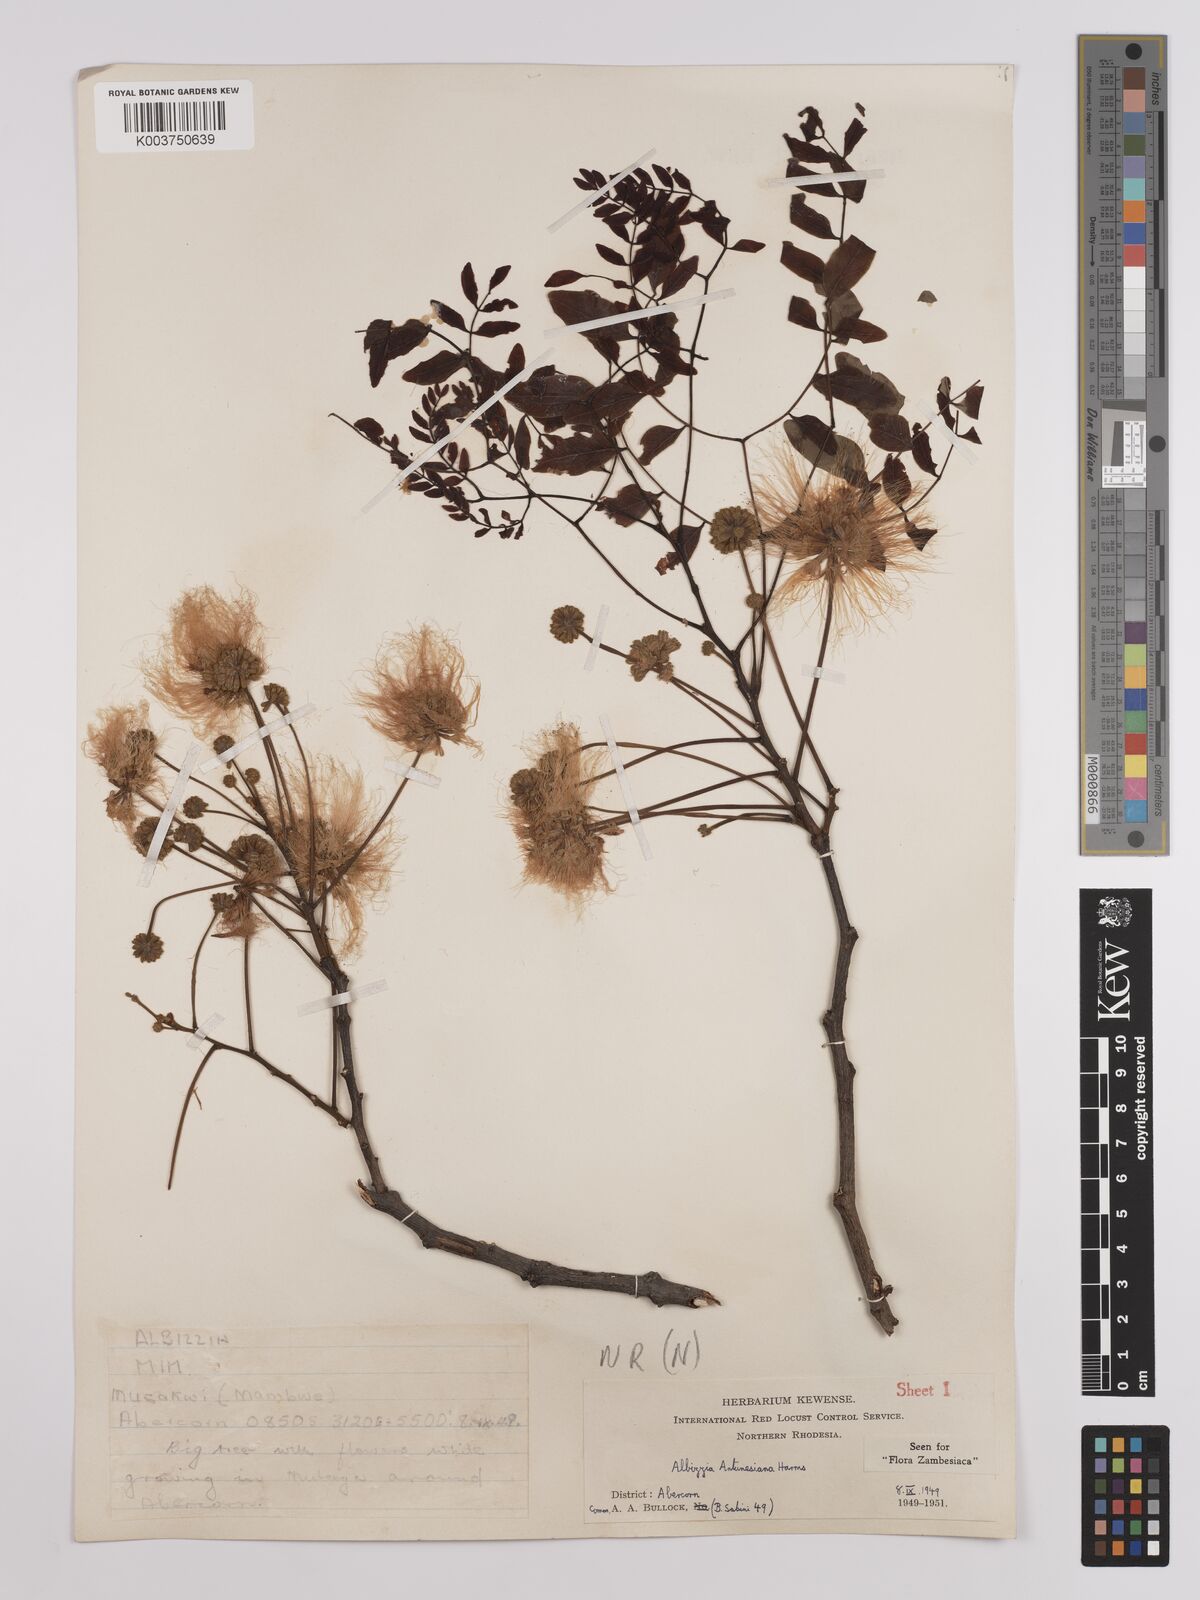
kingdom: Plantae
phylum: Tracheophyta
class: Magnoliopsida
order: Fabales
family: Fabaceae
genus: Albizia
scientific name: Albizia antunesiana
